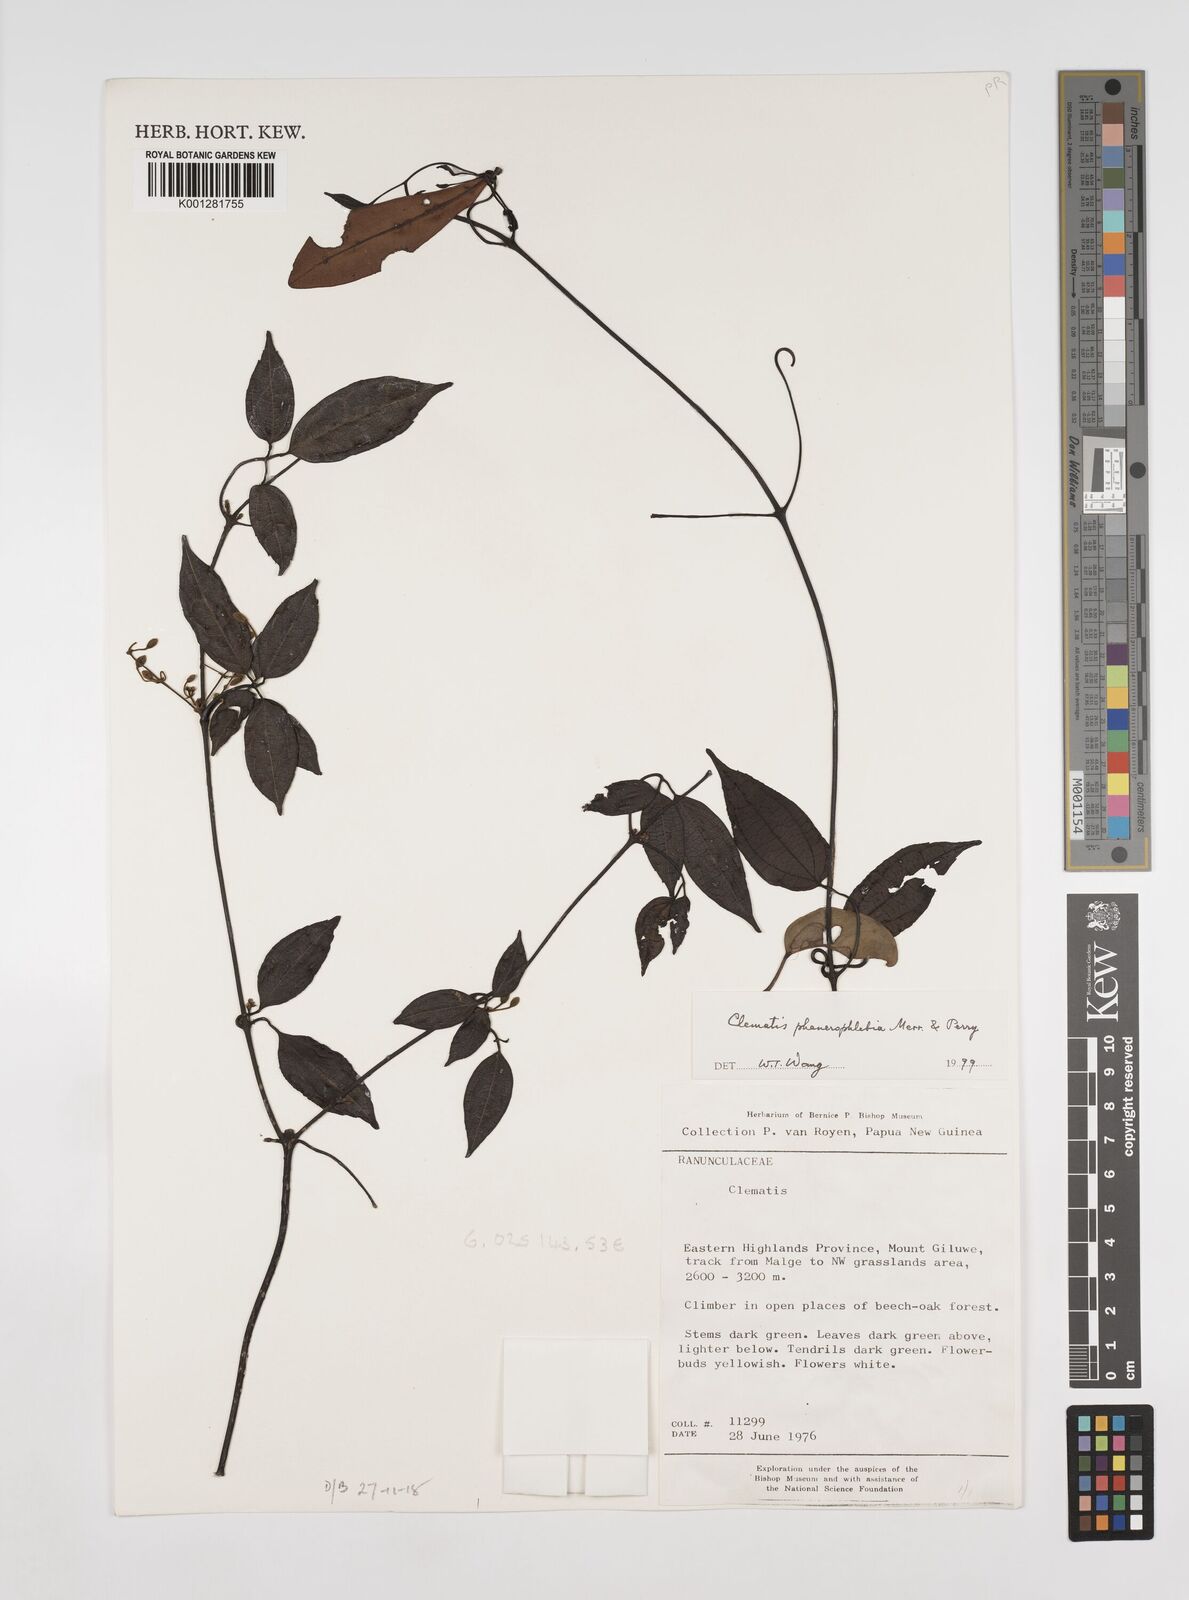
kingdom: Plantae
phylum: Tracheophyta
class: Magnoliopsida
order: Ranunculales
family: Ranunculaceae
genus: Clematis
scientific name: Clematis phanerophlebia
